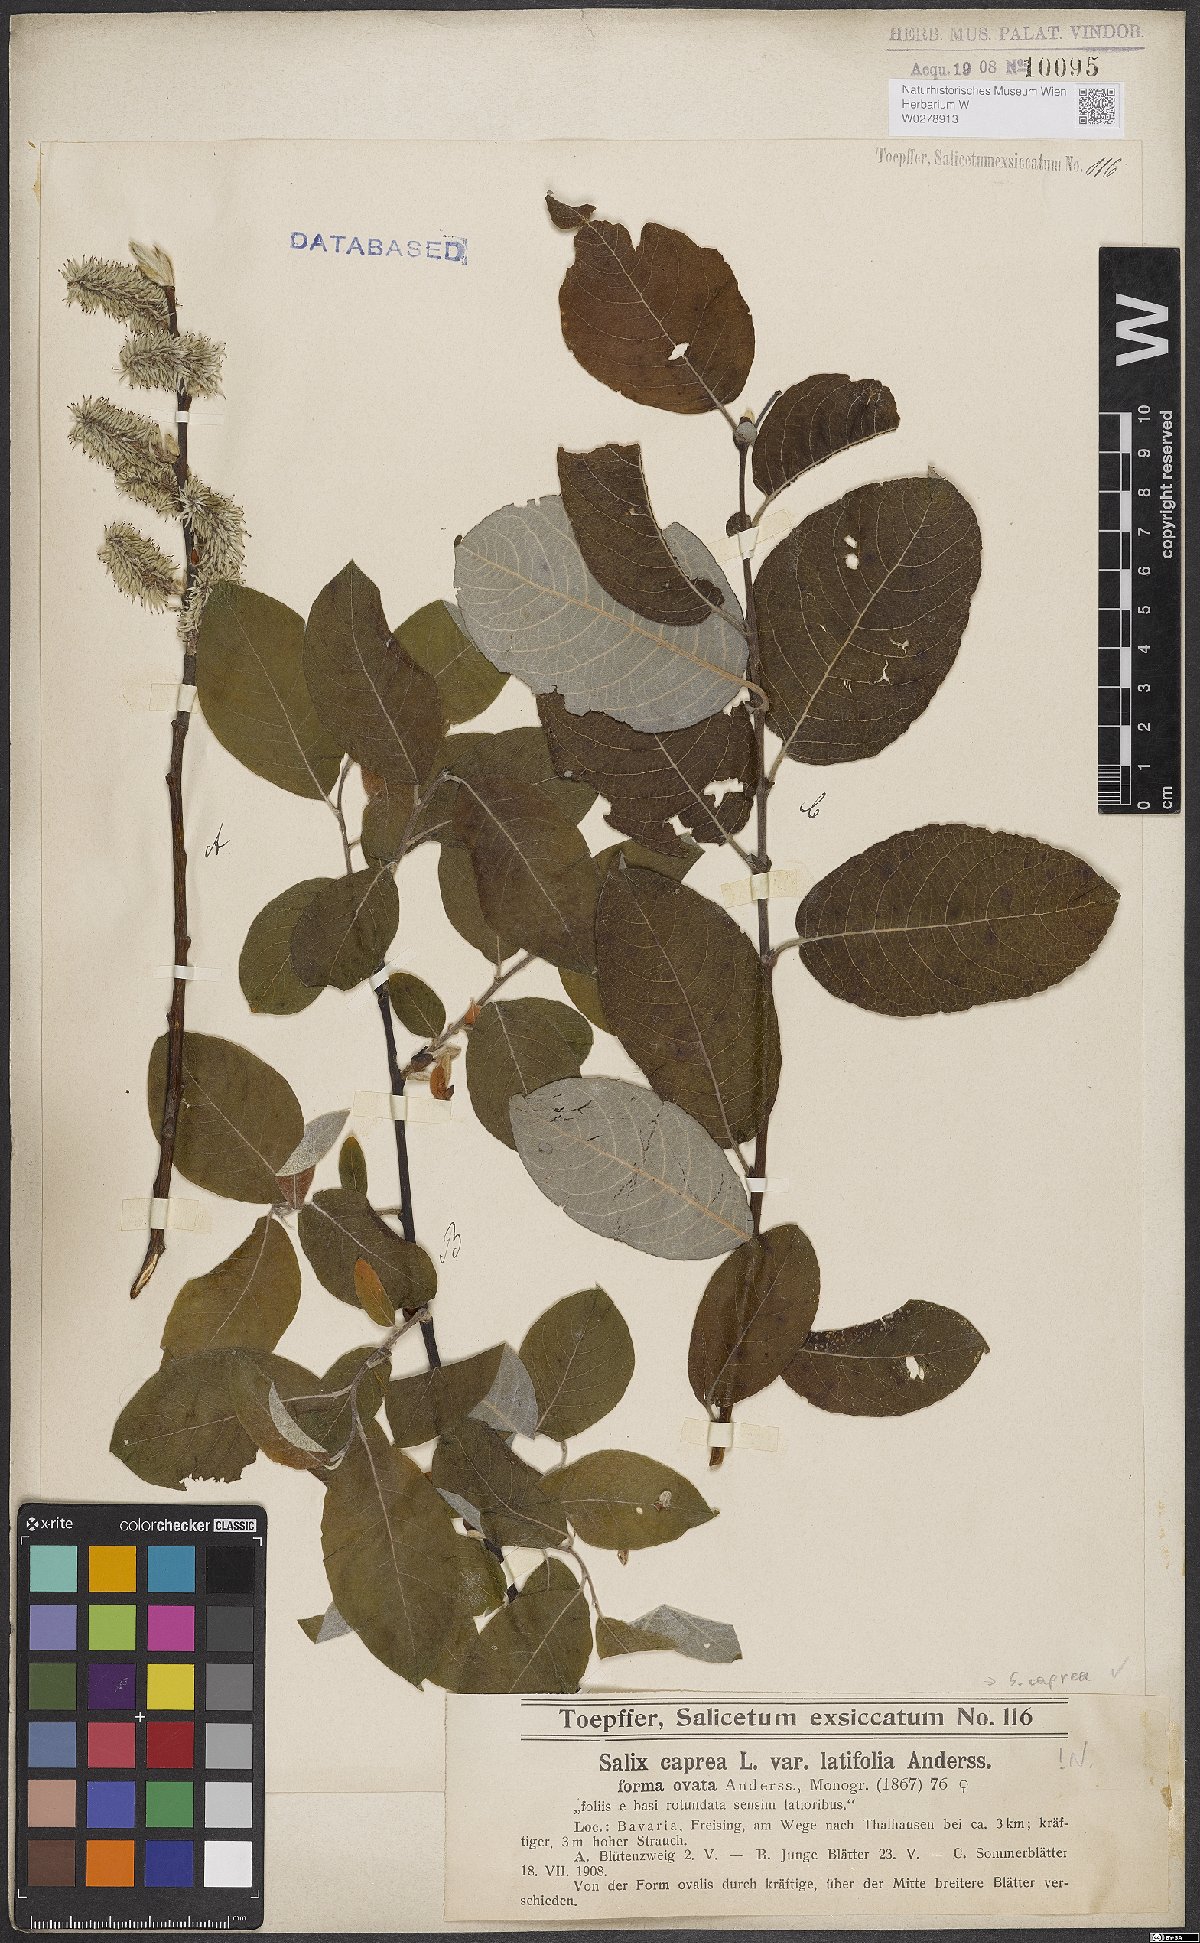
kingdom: Plantae
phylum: Tracheophyta
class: Magnoliopsida
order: Malpighiales
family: Salicaceae
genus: Salix
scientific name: Salix caprea
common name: Goat willow
